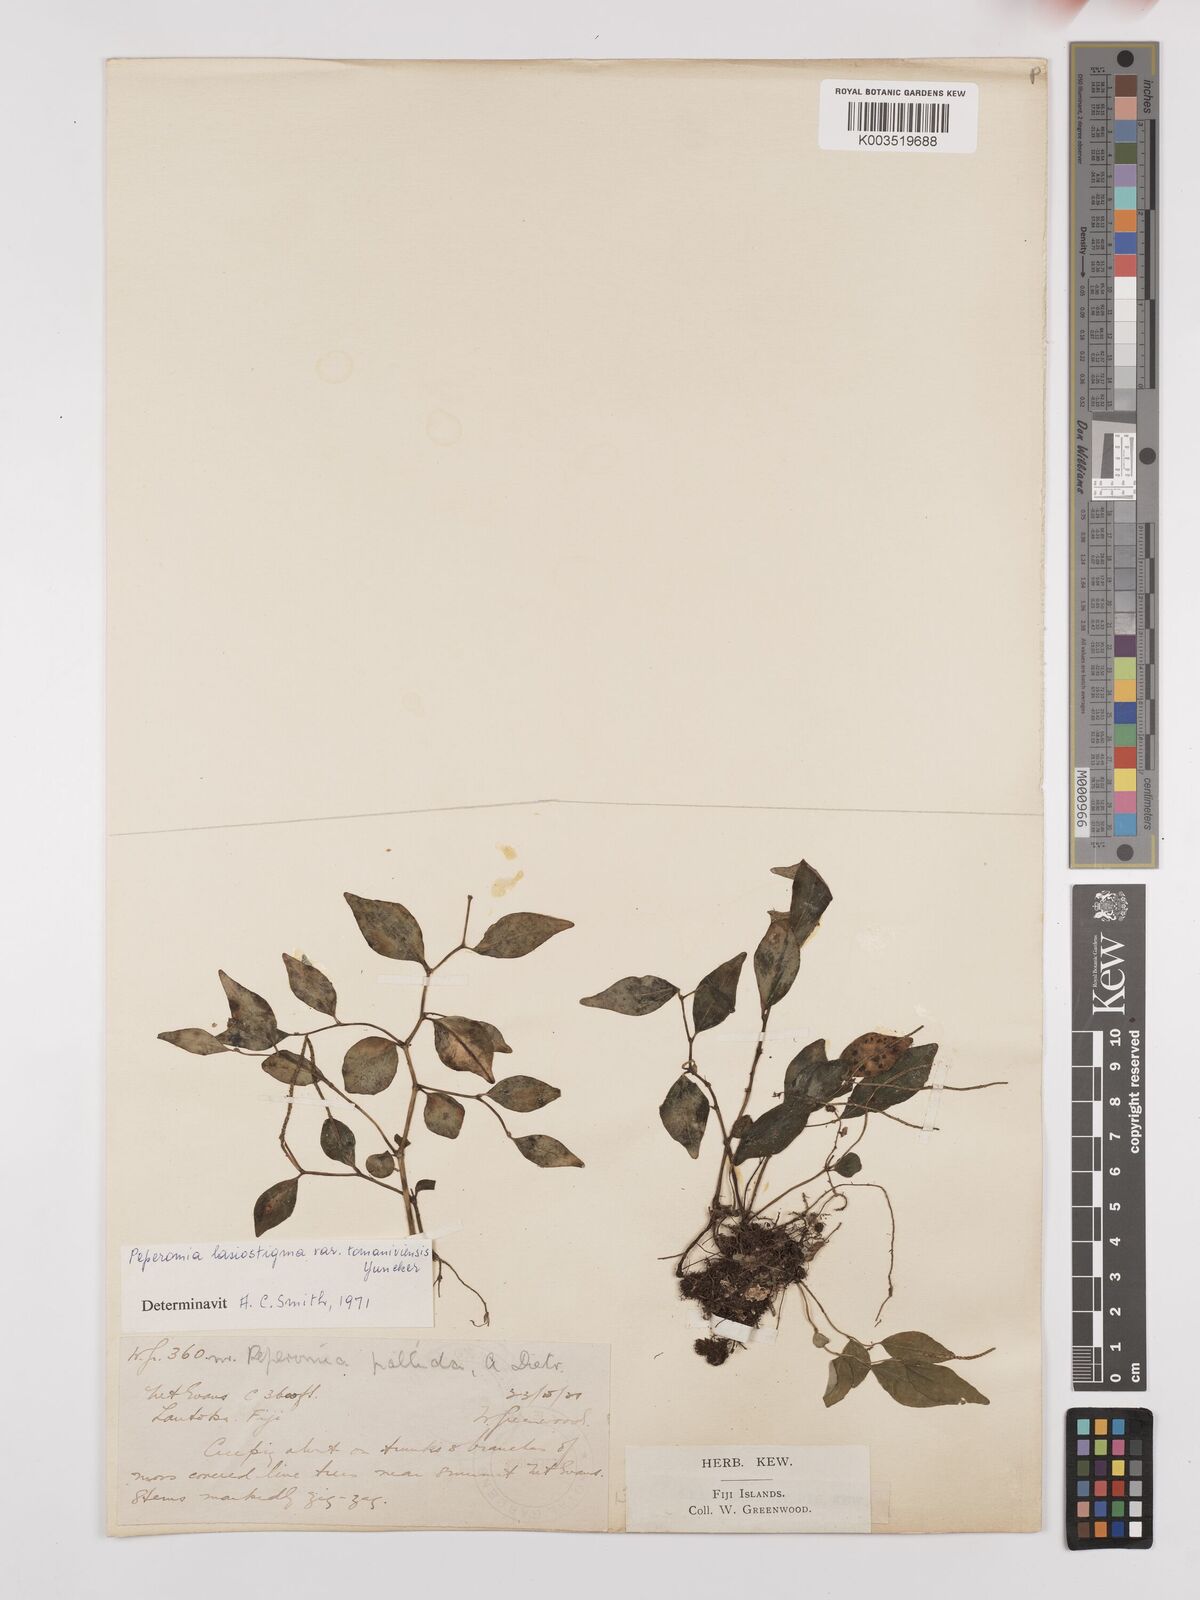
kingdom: Plantae
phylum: Tracheophyta
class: Magnoliopsida
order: Piperales
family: Piperaceae
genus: Peperomia
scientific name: Peperomia lasiostigma
